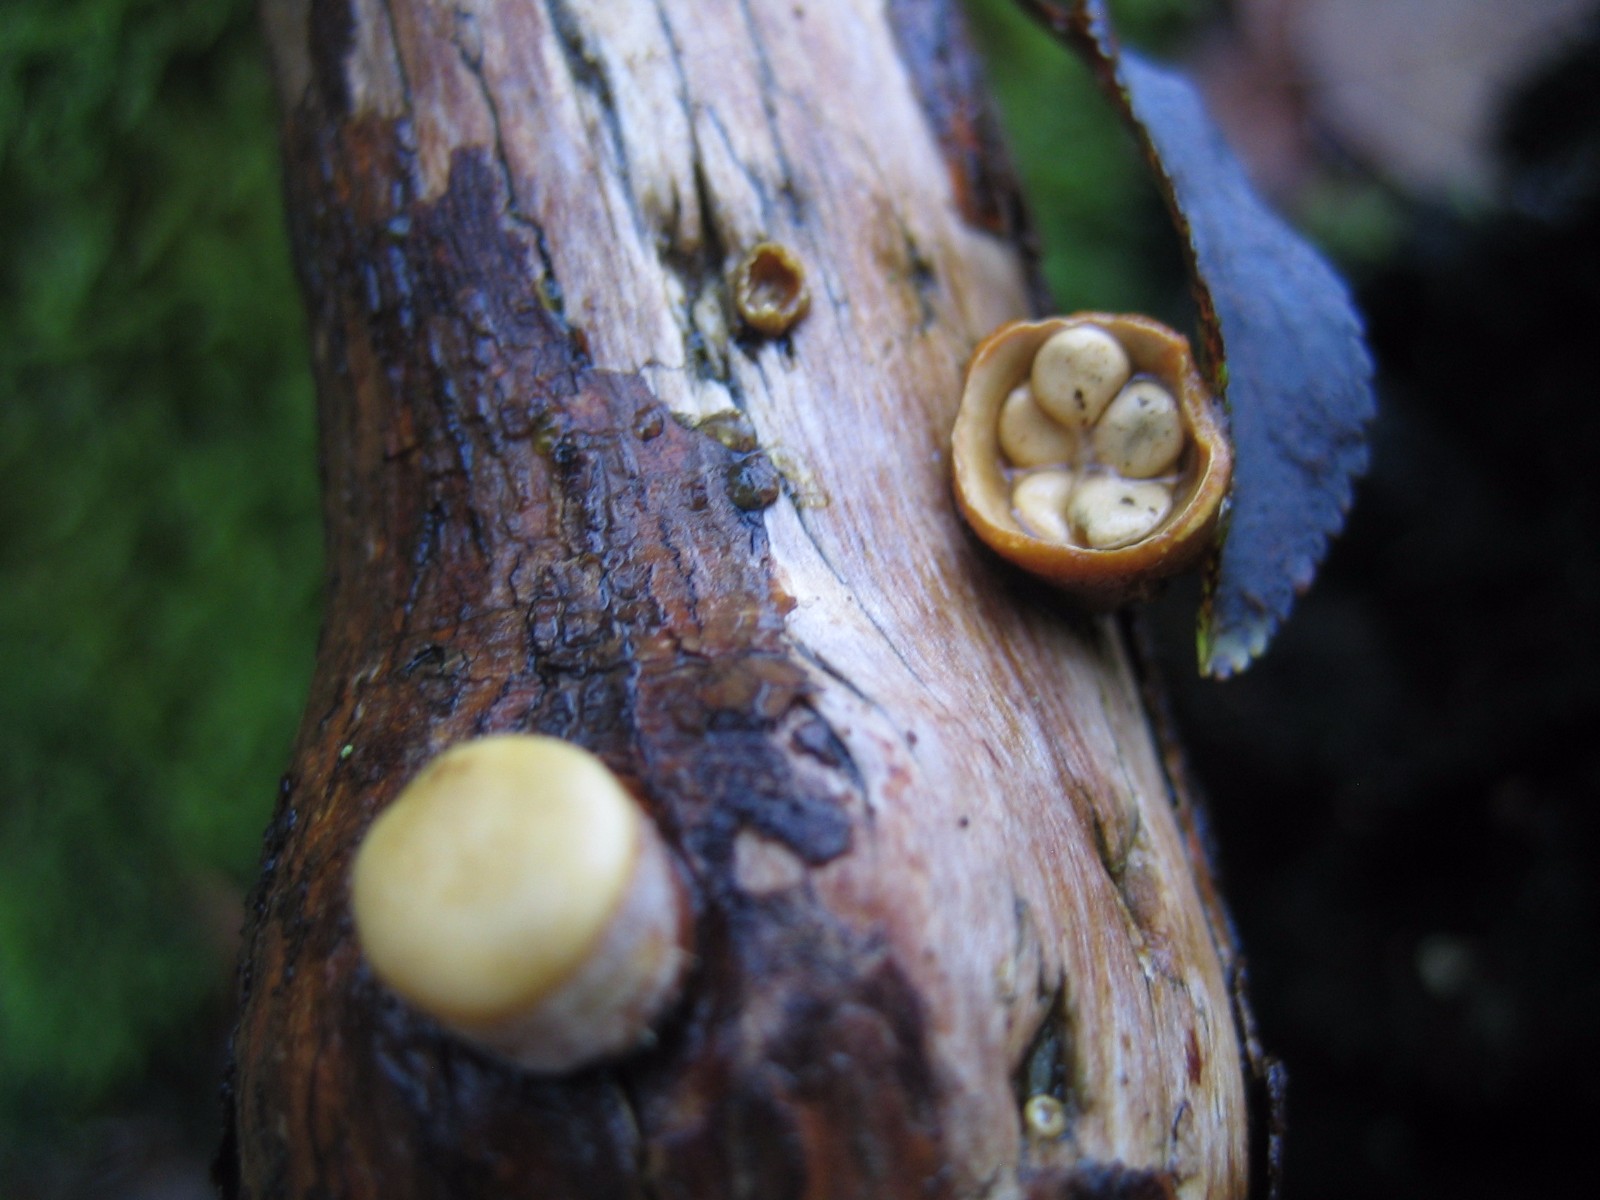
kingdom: Fungi
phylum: Basidiomycota
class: Agaricomycetes
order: Agaricales
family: Nidulariaceae
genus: Crucibulum
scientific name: Crucibulum crucibuliforme
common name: krukkesvamp
